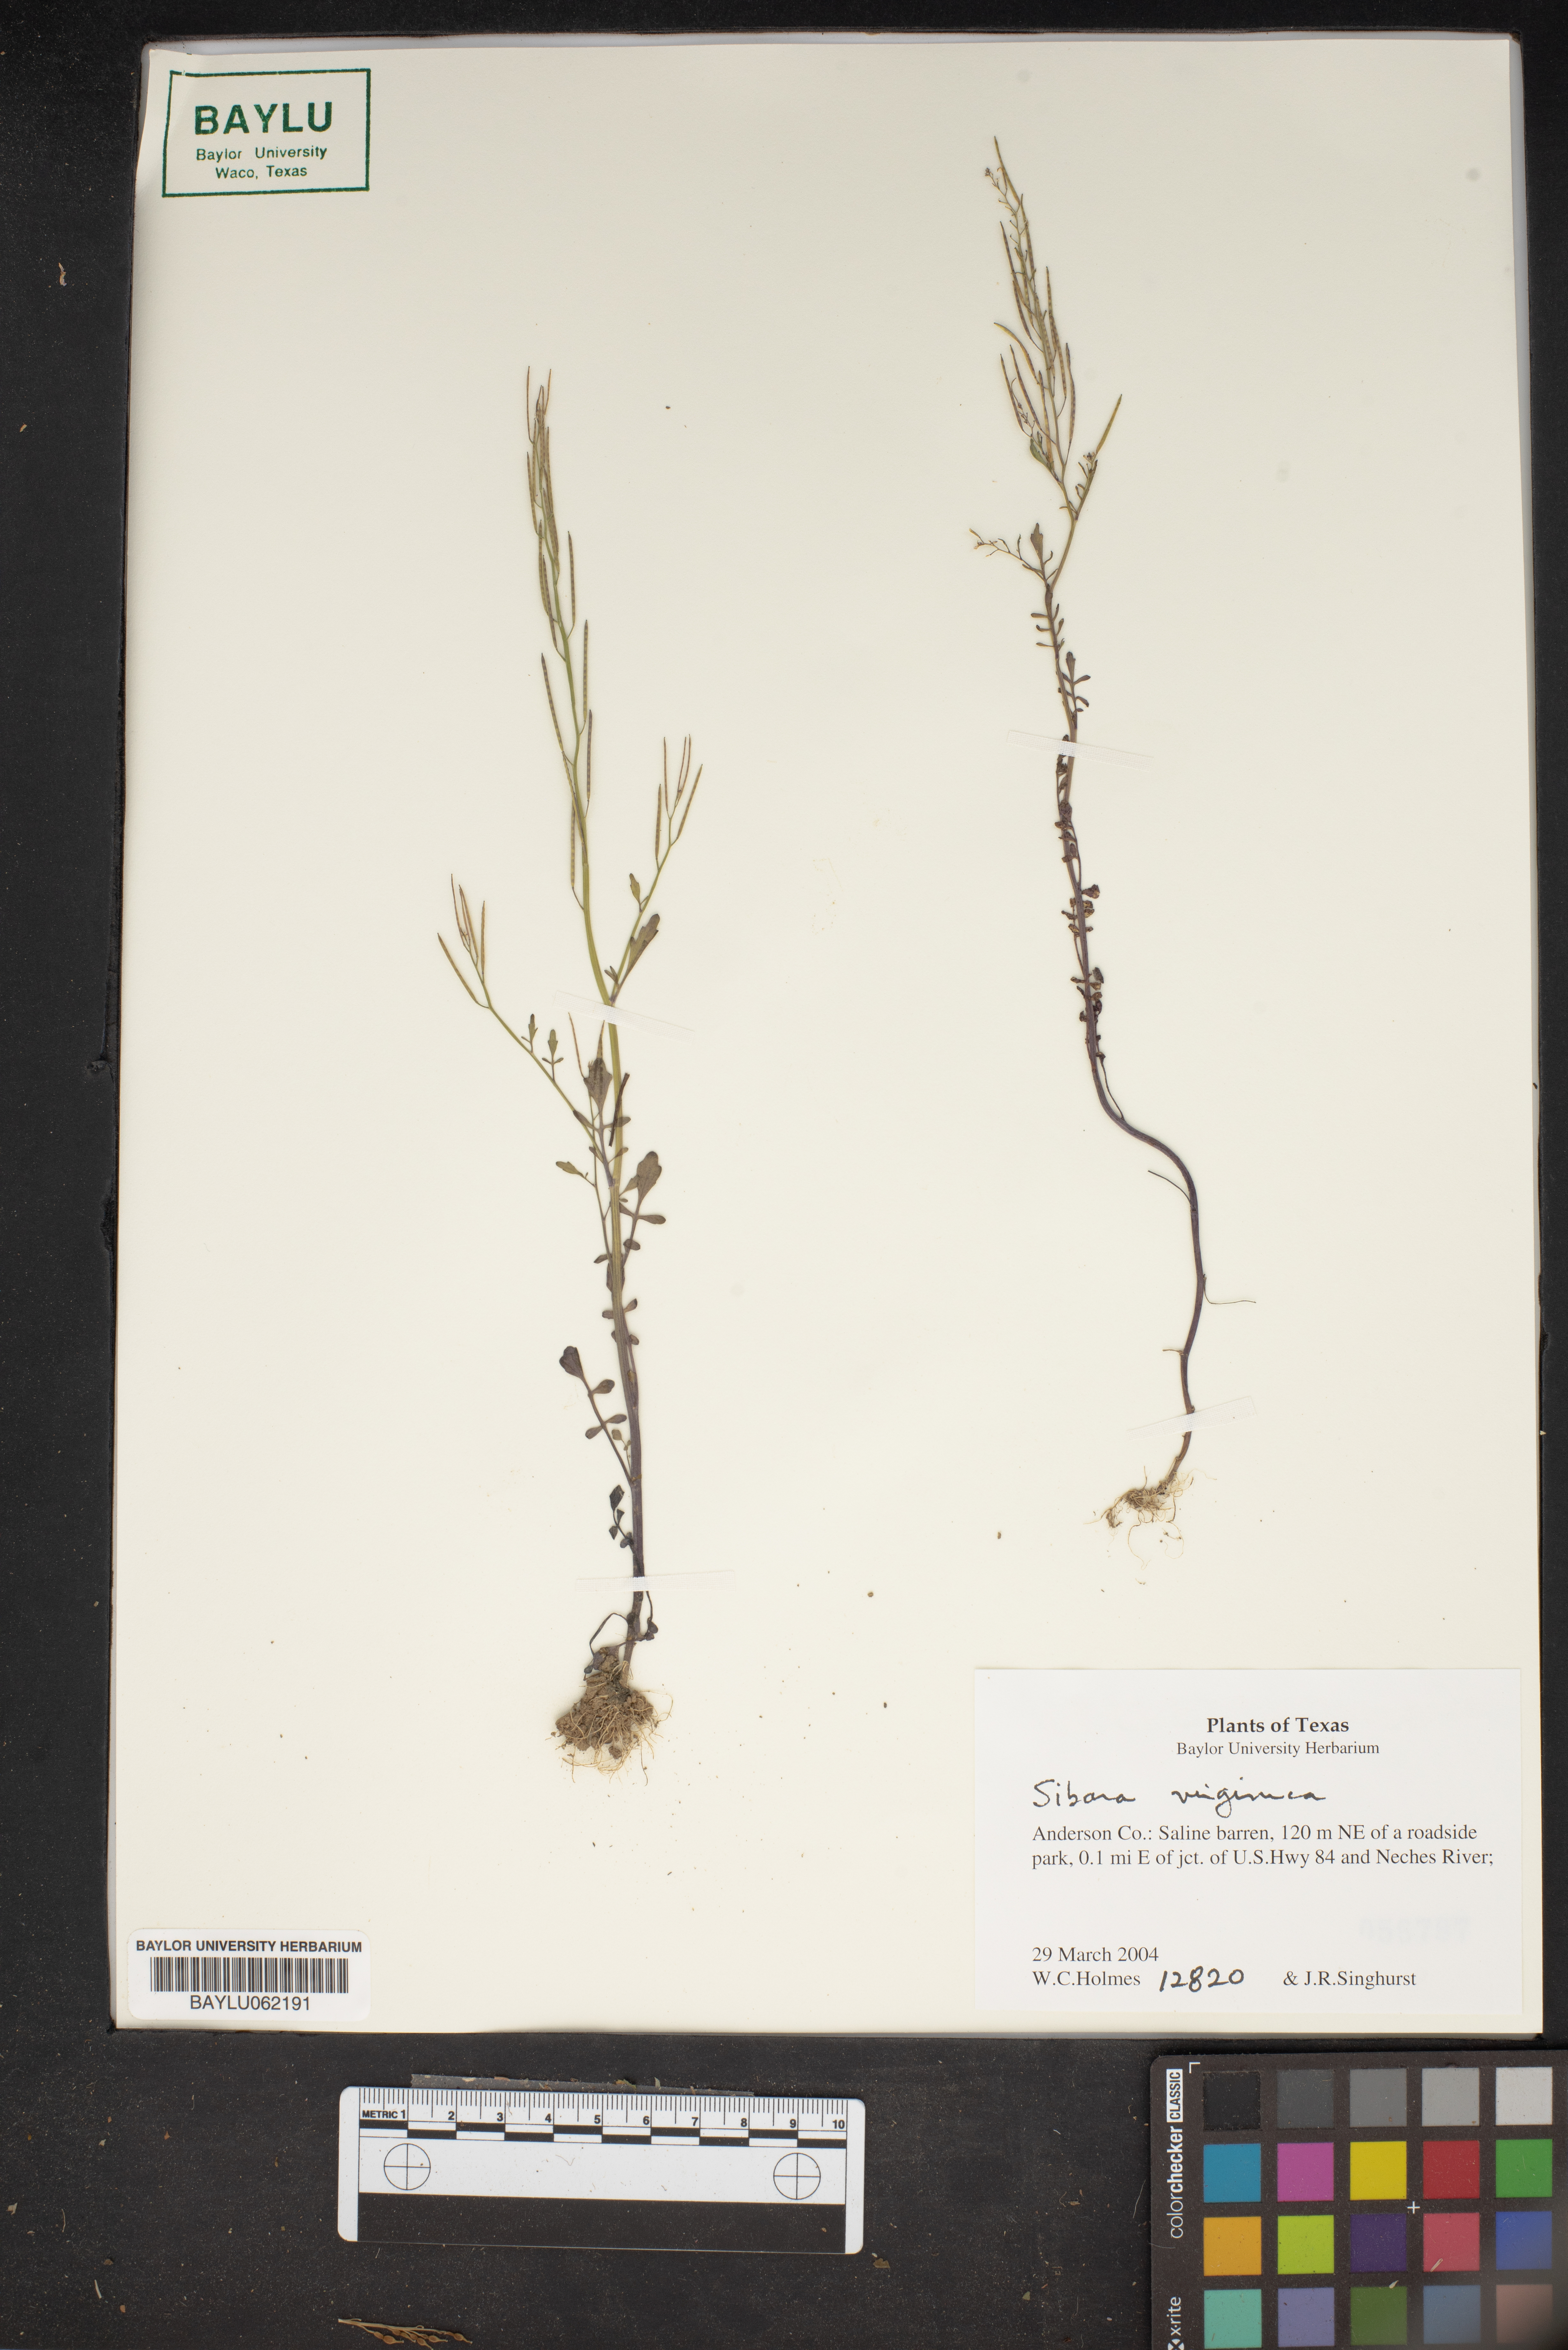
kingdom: Plantae
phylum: Tracheophyta
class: Magnoliopsida
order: Brassicales
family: Brassicaceae
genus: Planodes
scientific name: Planodes virginicum
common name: Virginia cress
